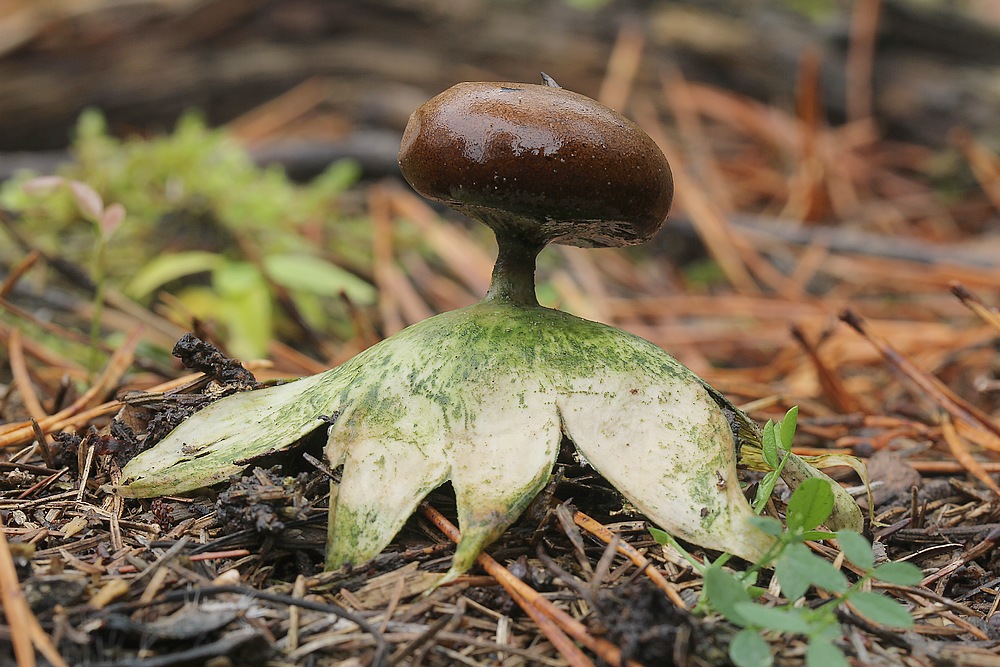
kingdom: Fungi
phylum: Basidiomycota
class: Agaricomycetes
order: Geastrales
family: Geastraceae
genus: Geastrum
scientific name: Geastrum pectinatum
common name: stilket stjernebold
